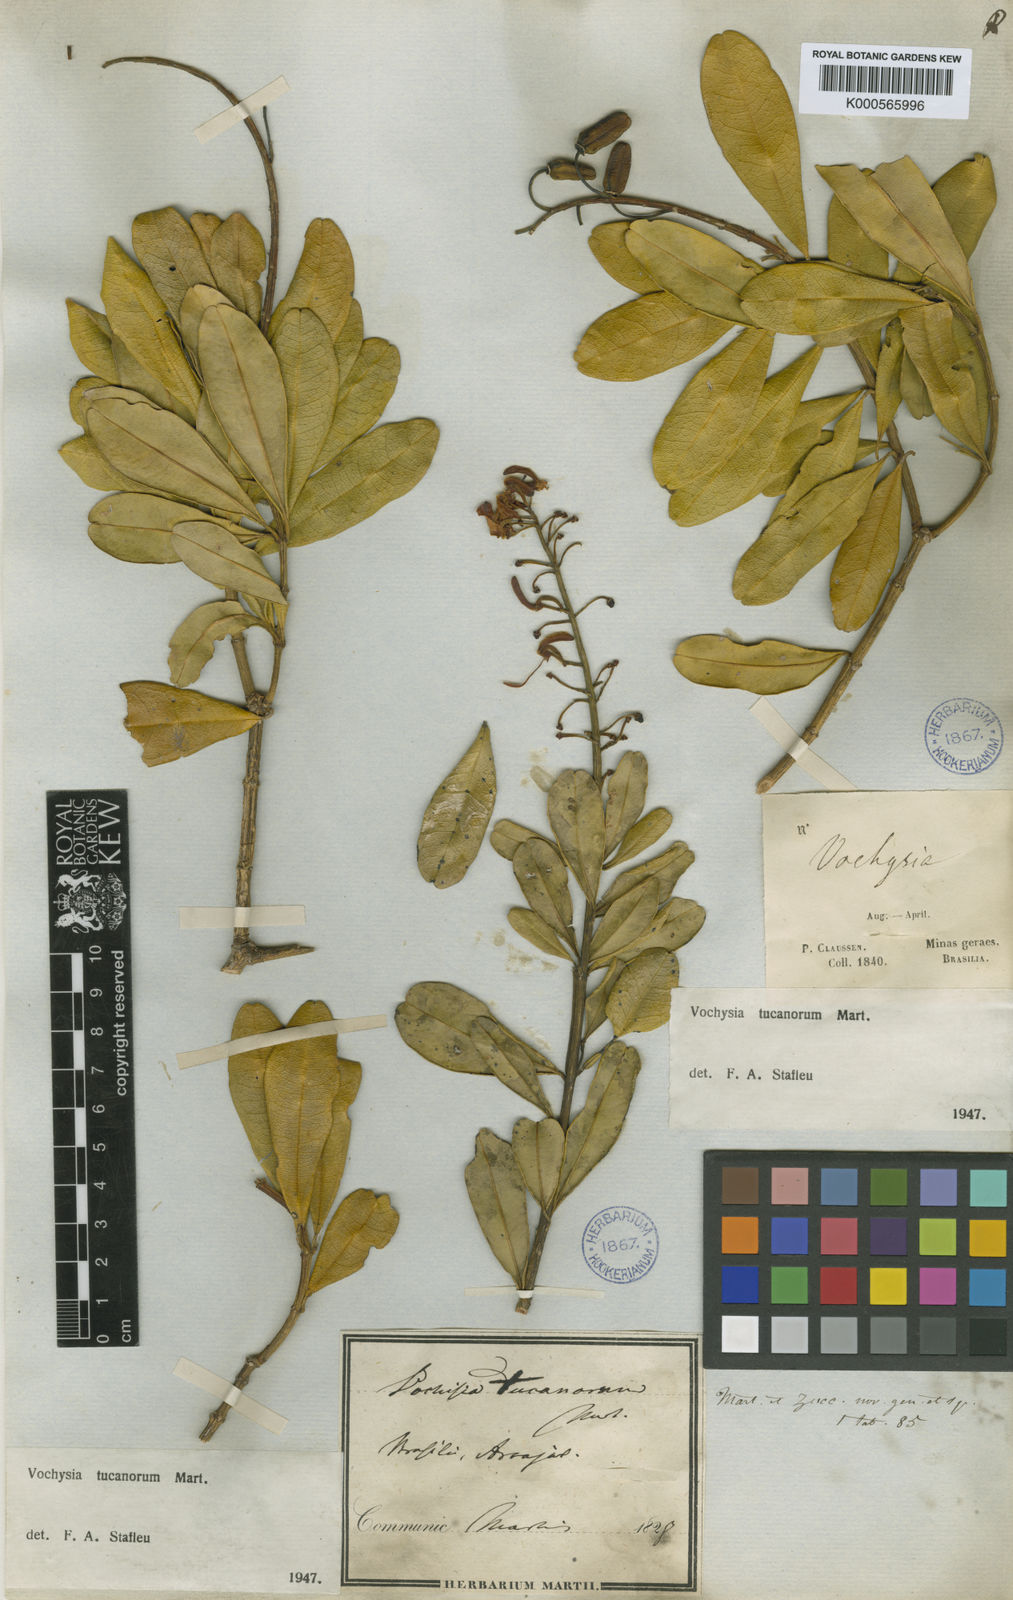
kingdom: Plantae
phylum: Tracheophyta
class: Magnoliopsida
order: Myrtales
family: Vochysiaceae
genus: Vochysia
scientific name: Vochysia tucanorum
